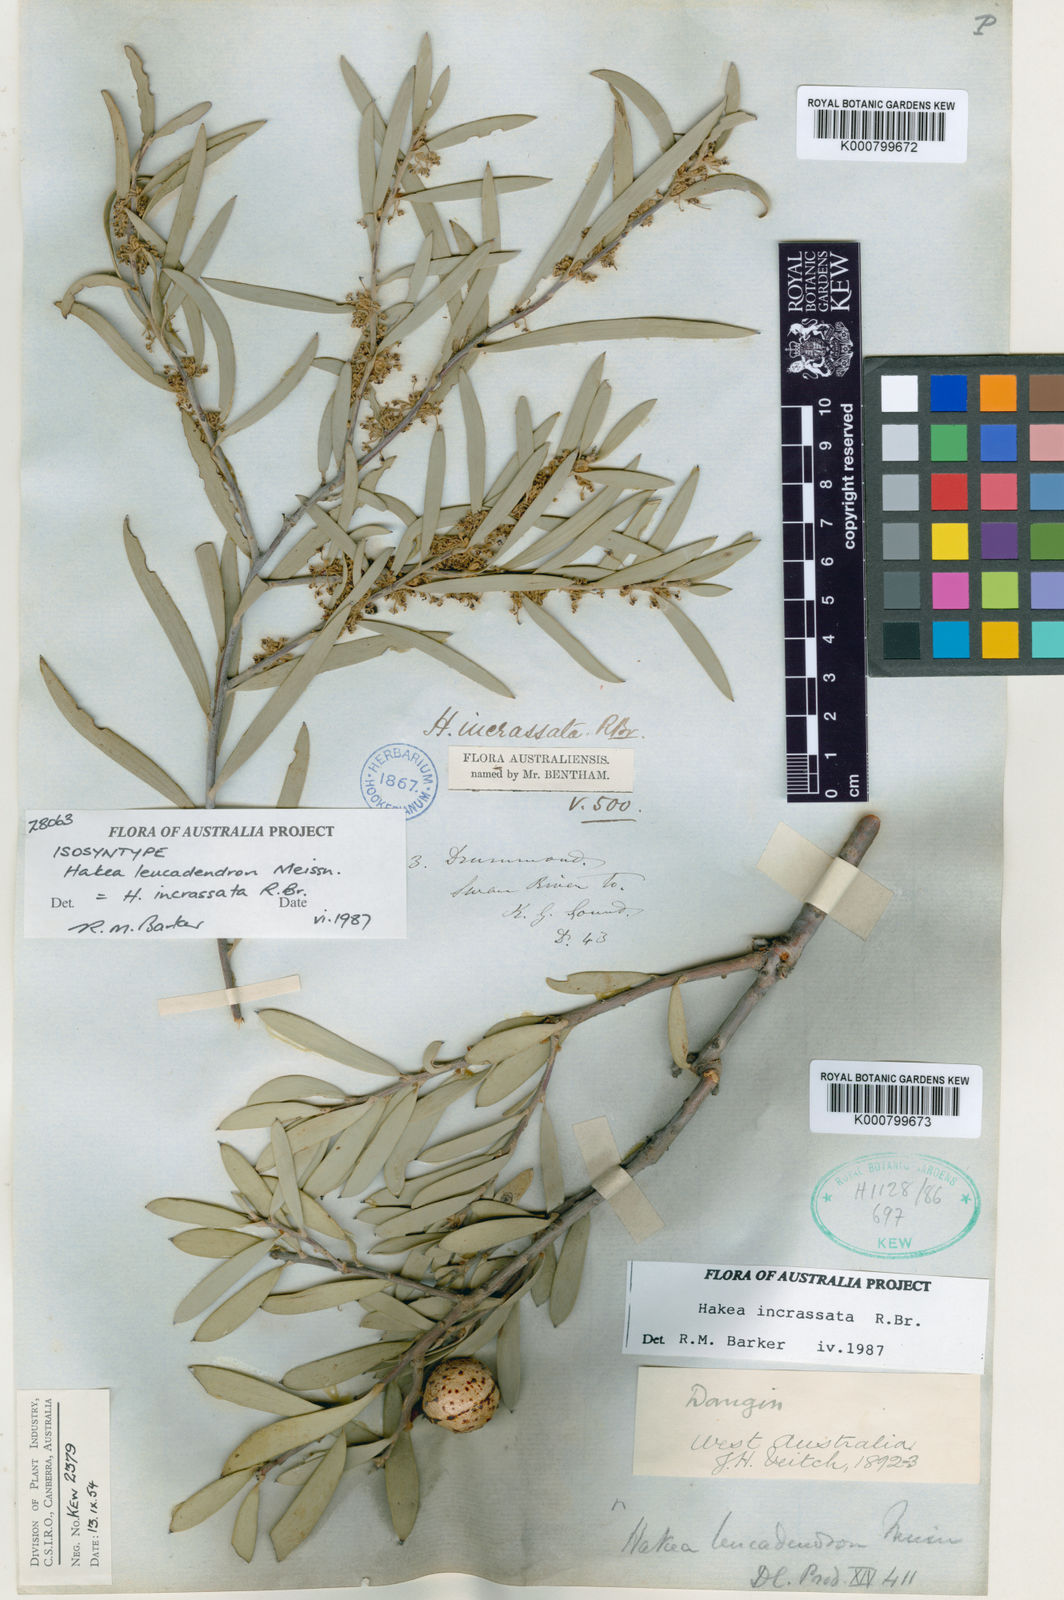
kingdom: Plantae
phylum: Tracheophyta
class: Magnoliopsida
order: Proteales
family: Proteaceae
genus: Hakea
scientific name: Hakea incrassata
